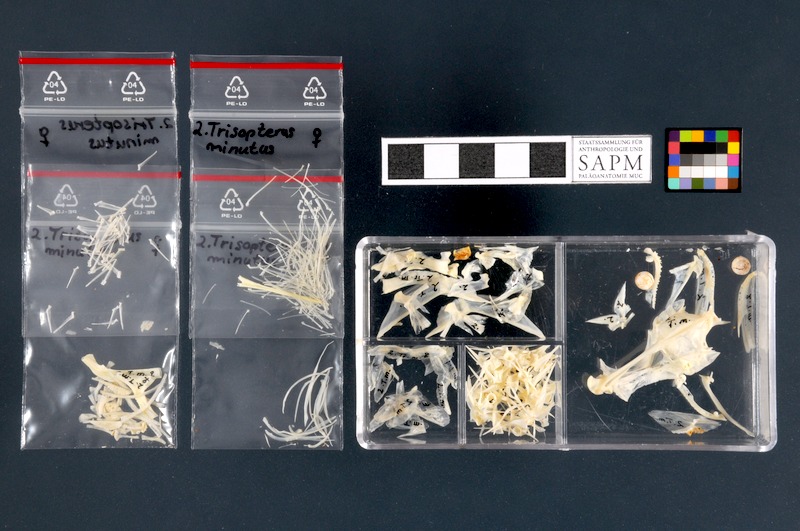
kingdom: Animalia
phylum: Chordata
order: Gadiformes
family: Gadidae
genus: Trisopterus
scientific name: Trisopterus minutus
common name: Poor cod
